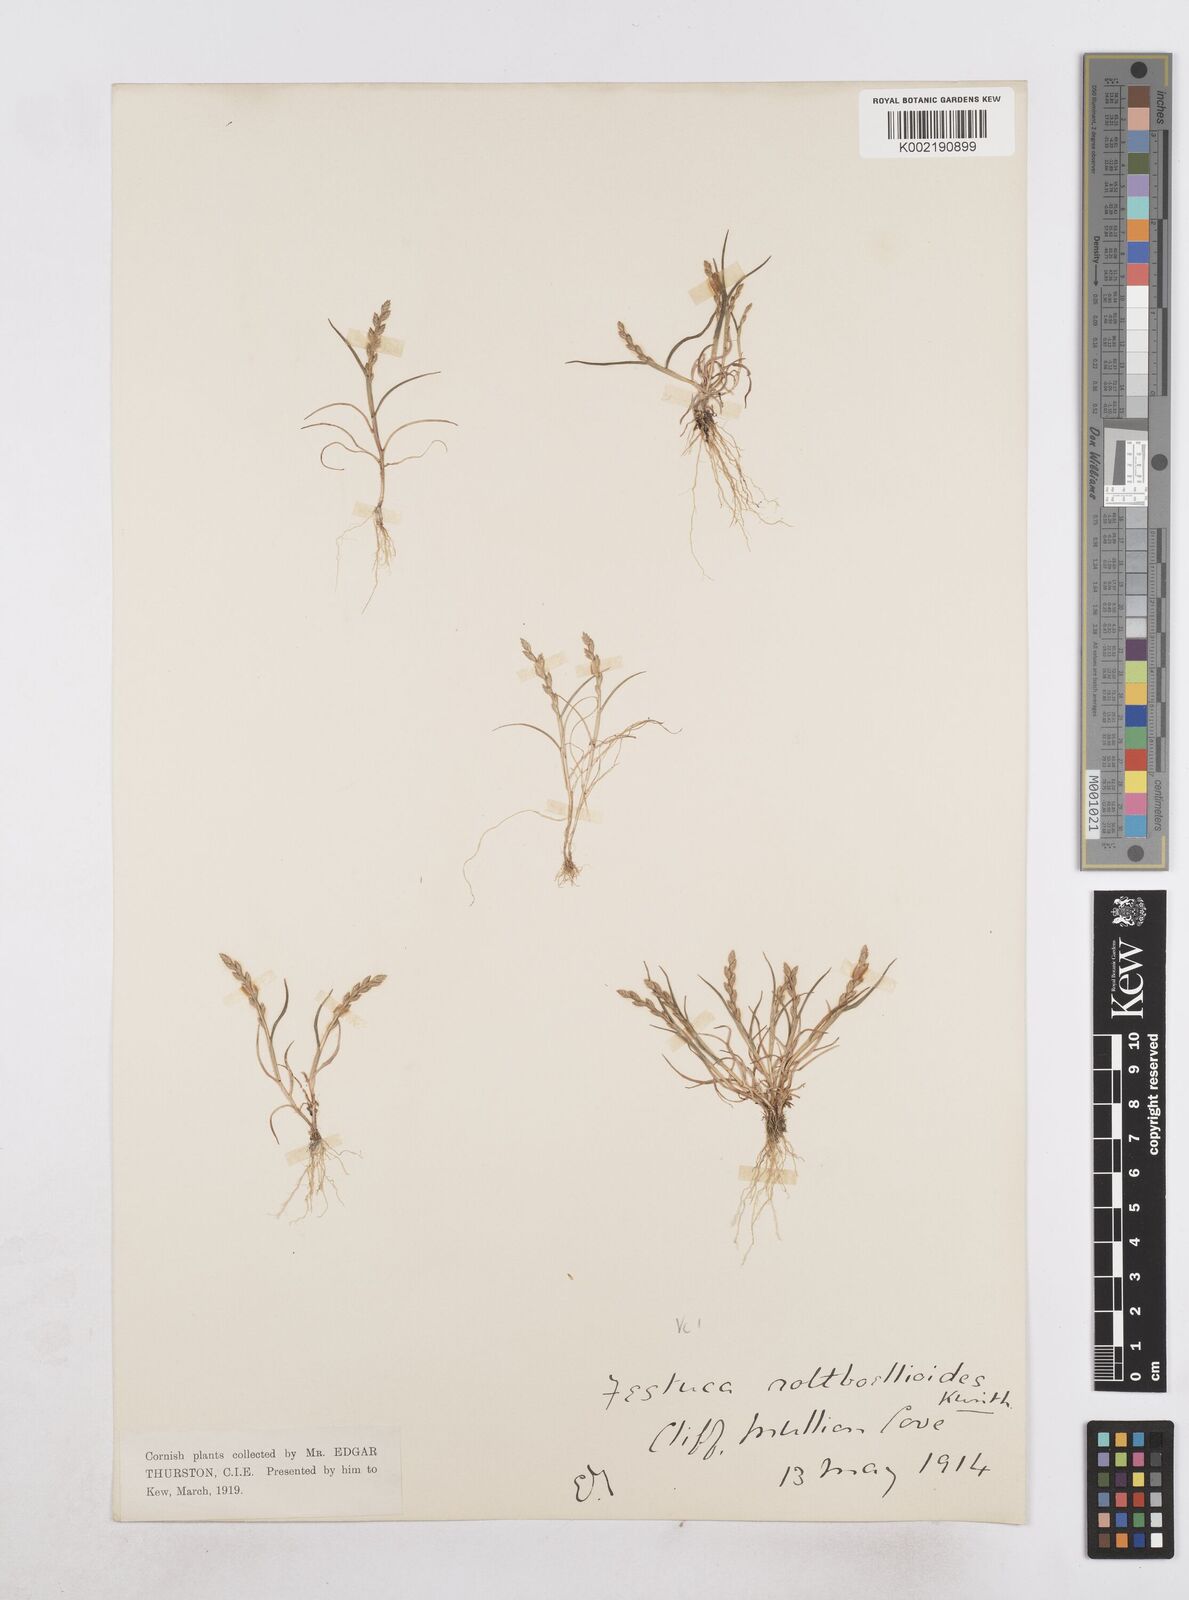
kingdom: Plantae
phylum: Tracheophyta
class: Liliopsida
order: Poales
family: Poaceae
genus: Catapodium
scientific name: Catapodium marinum
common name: Sea fern-grass
